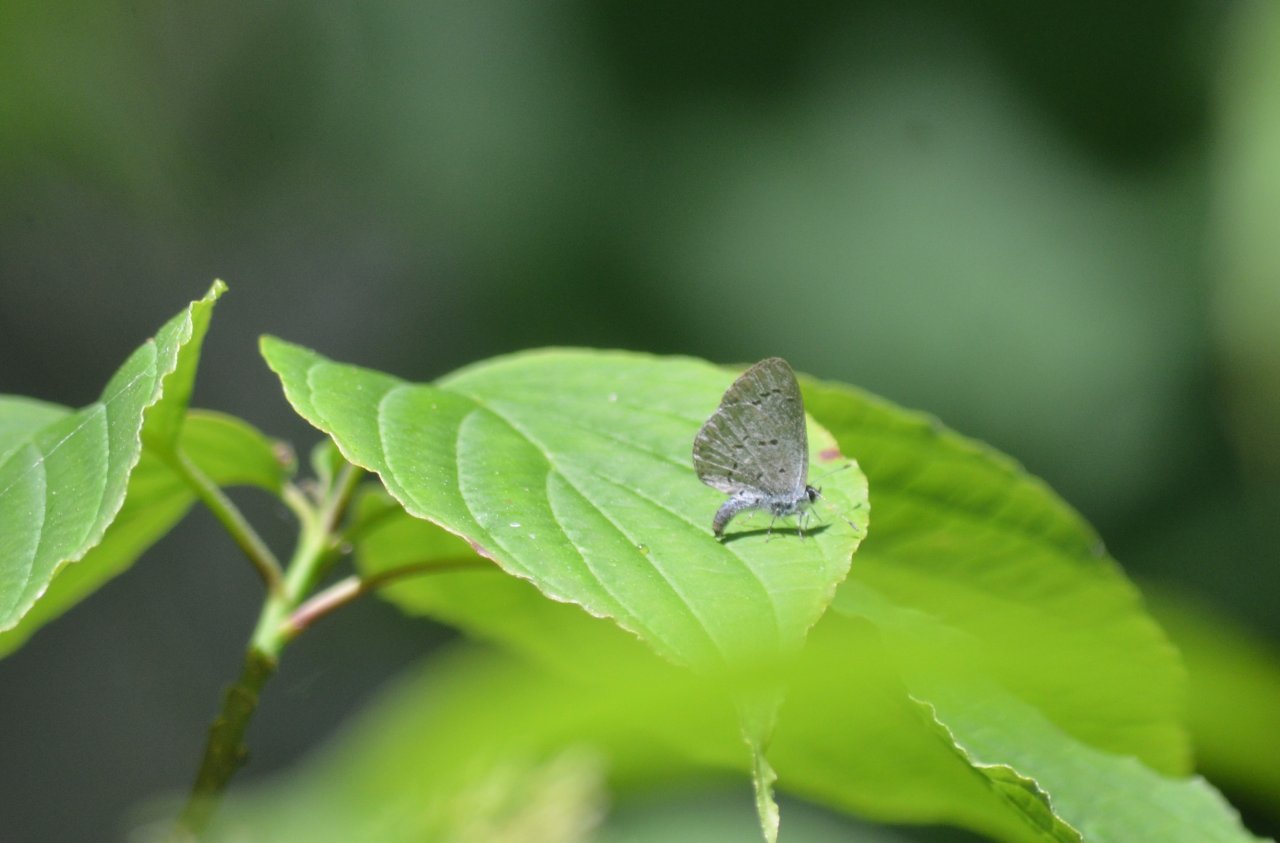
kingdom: Animalia
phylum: Arthropoda
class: Insecta
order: Lepidoptera
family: Lycaenidae
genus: Celastrina
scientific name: Celastrina lucia
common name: Northern Spring Azure
